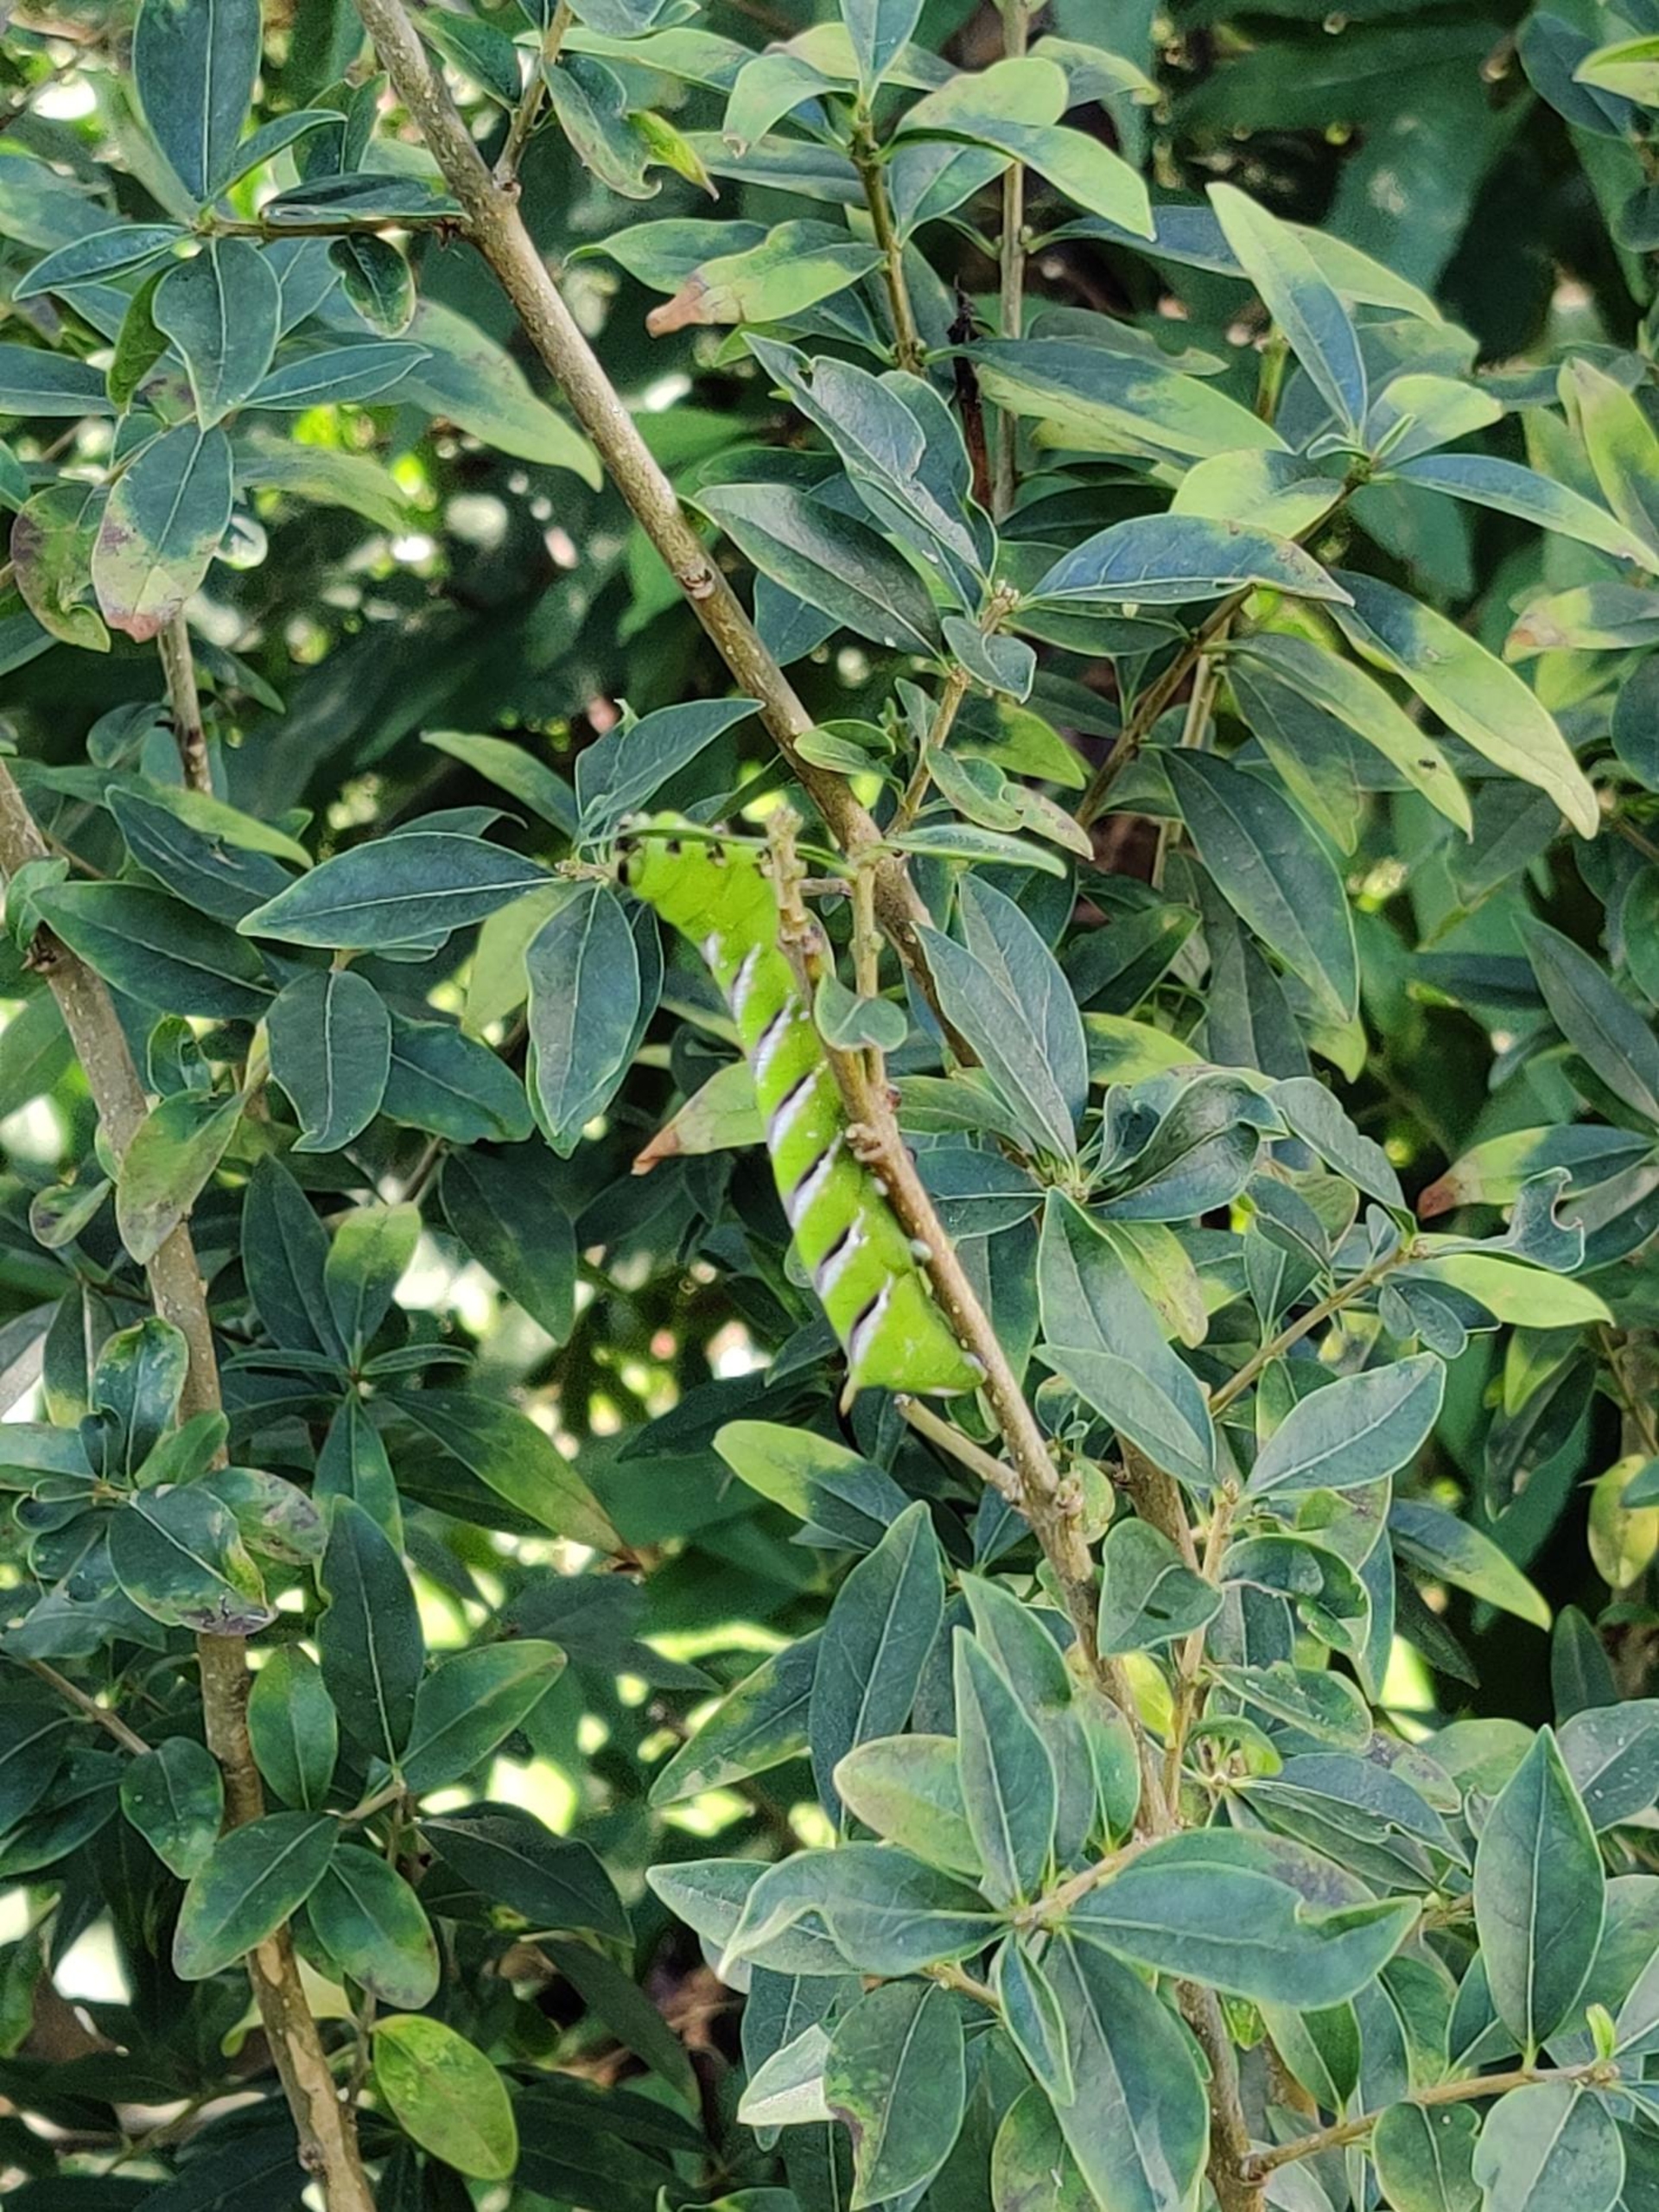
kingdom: Animalia
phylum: Arthropoda
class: Insecta
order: Lepidoptera
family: Sphingidae
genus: Sphinx
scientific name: Sphinx ligustri
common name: Ligustersværmer
